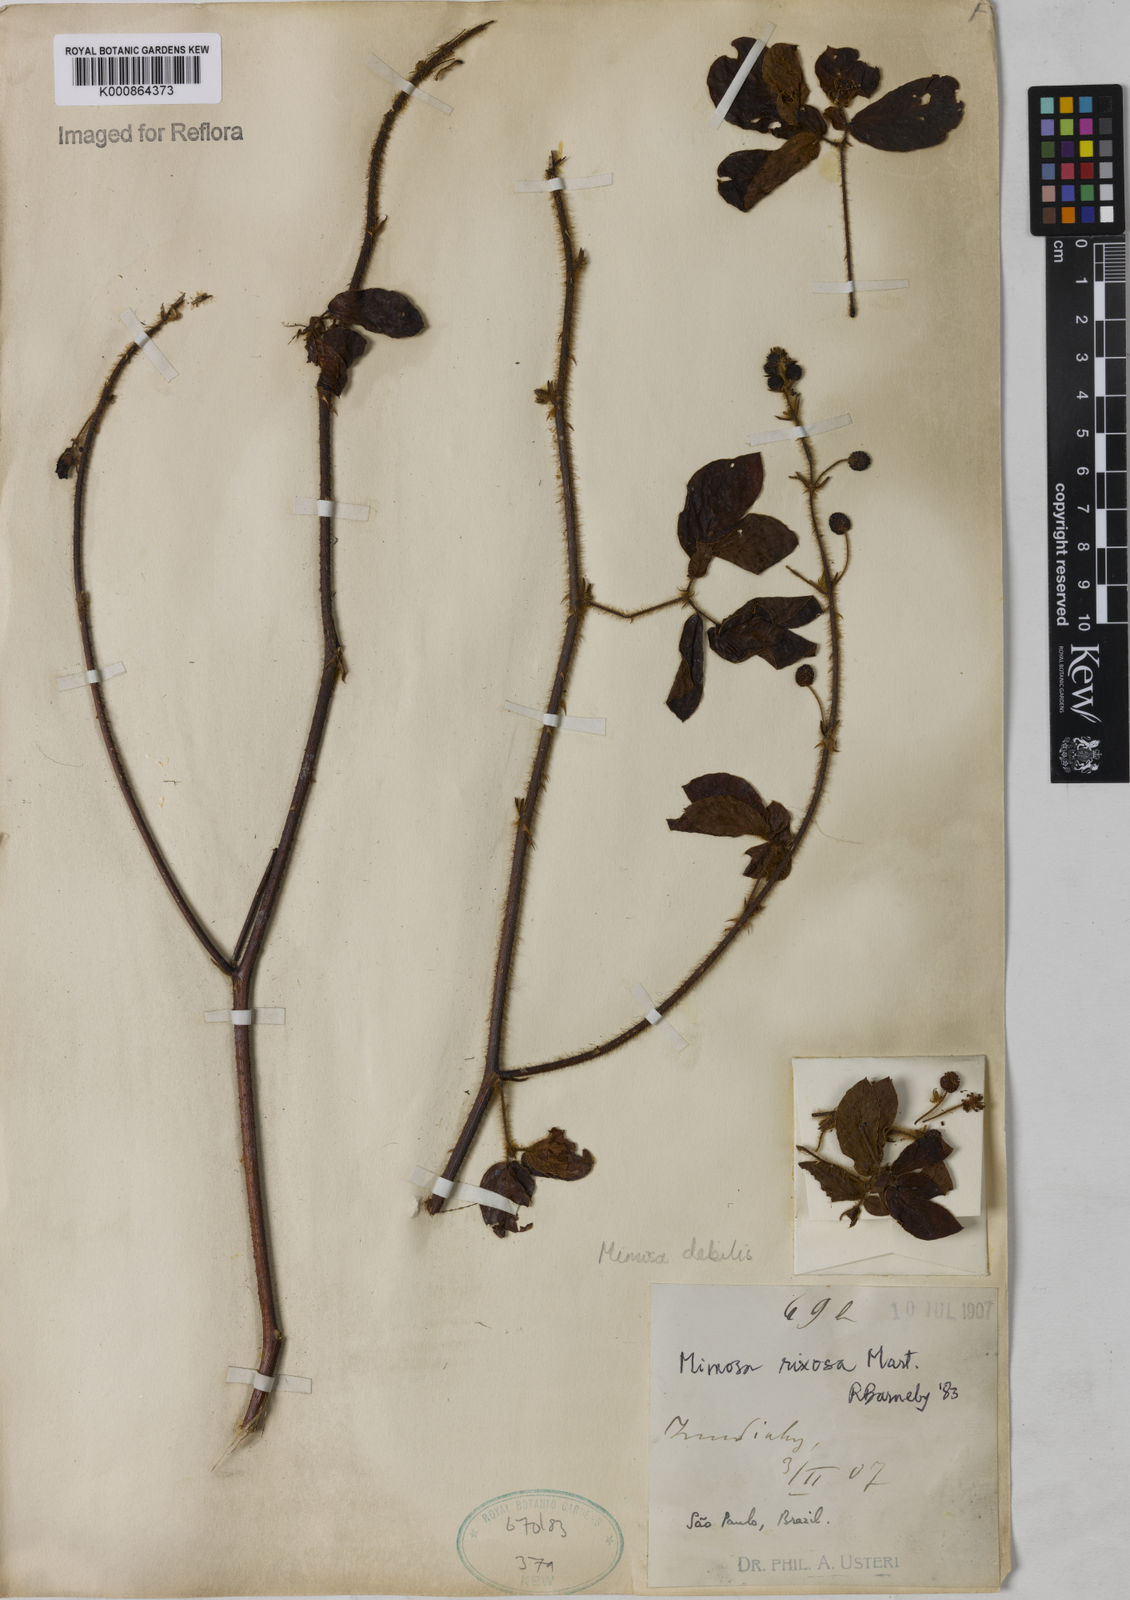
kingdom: Plantae
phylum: Tracheophyta
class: Magnoliopsida
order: Fabales
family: Fabaceae
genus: Mimosa
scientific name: Mimosa
